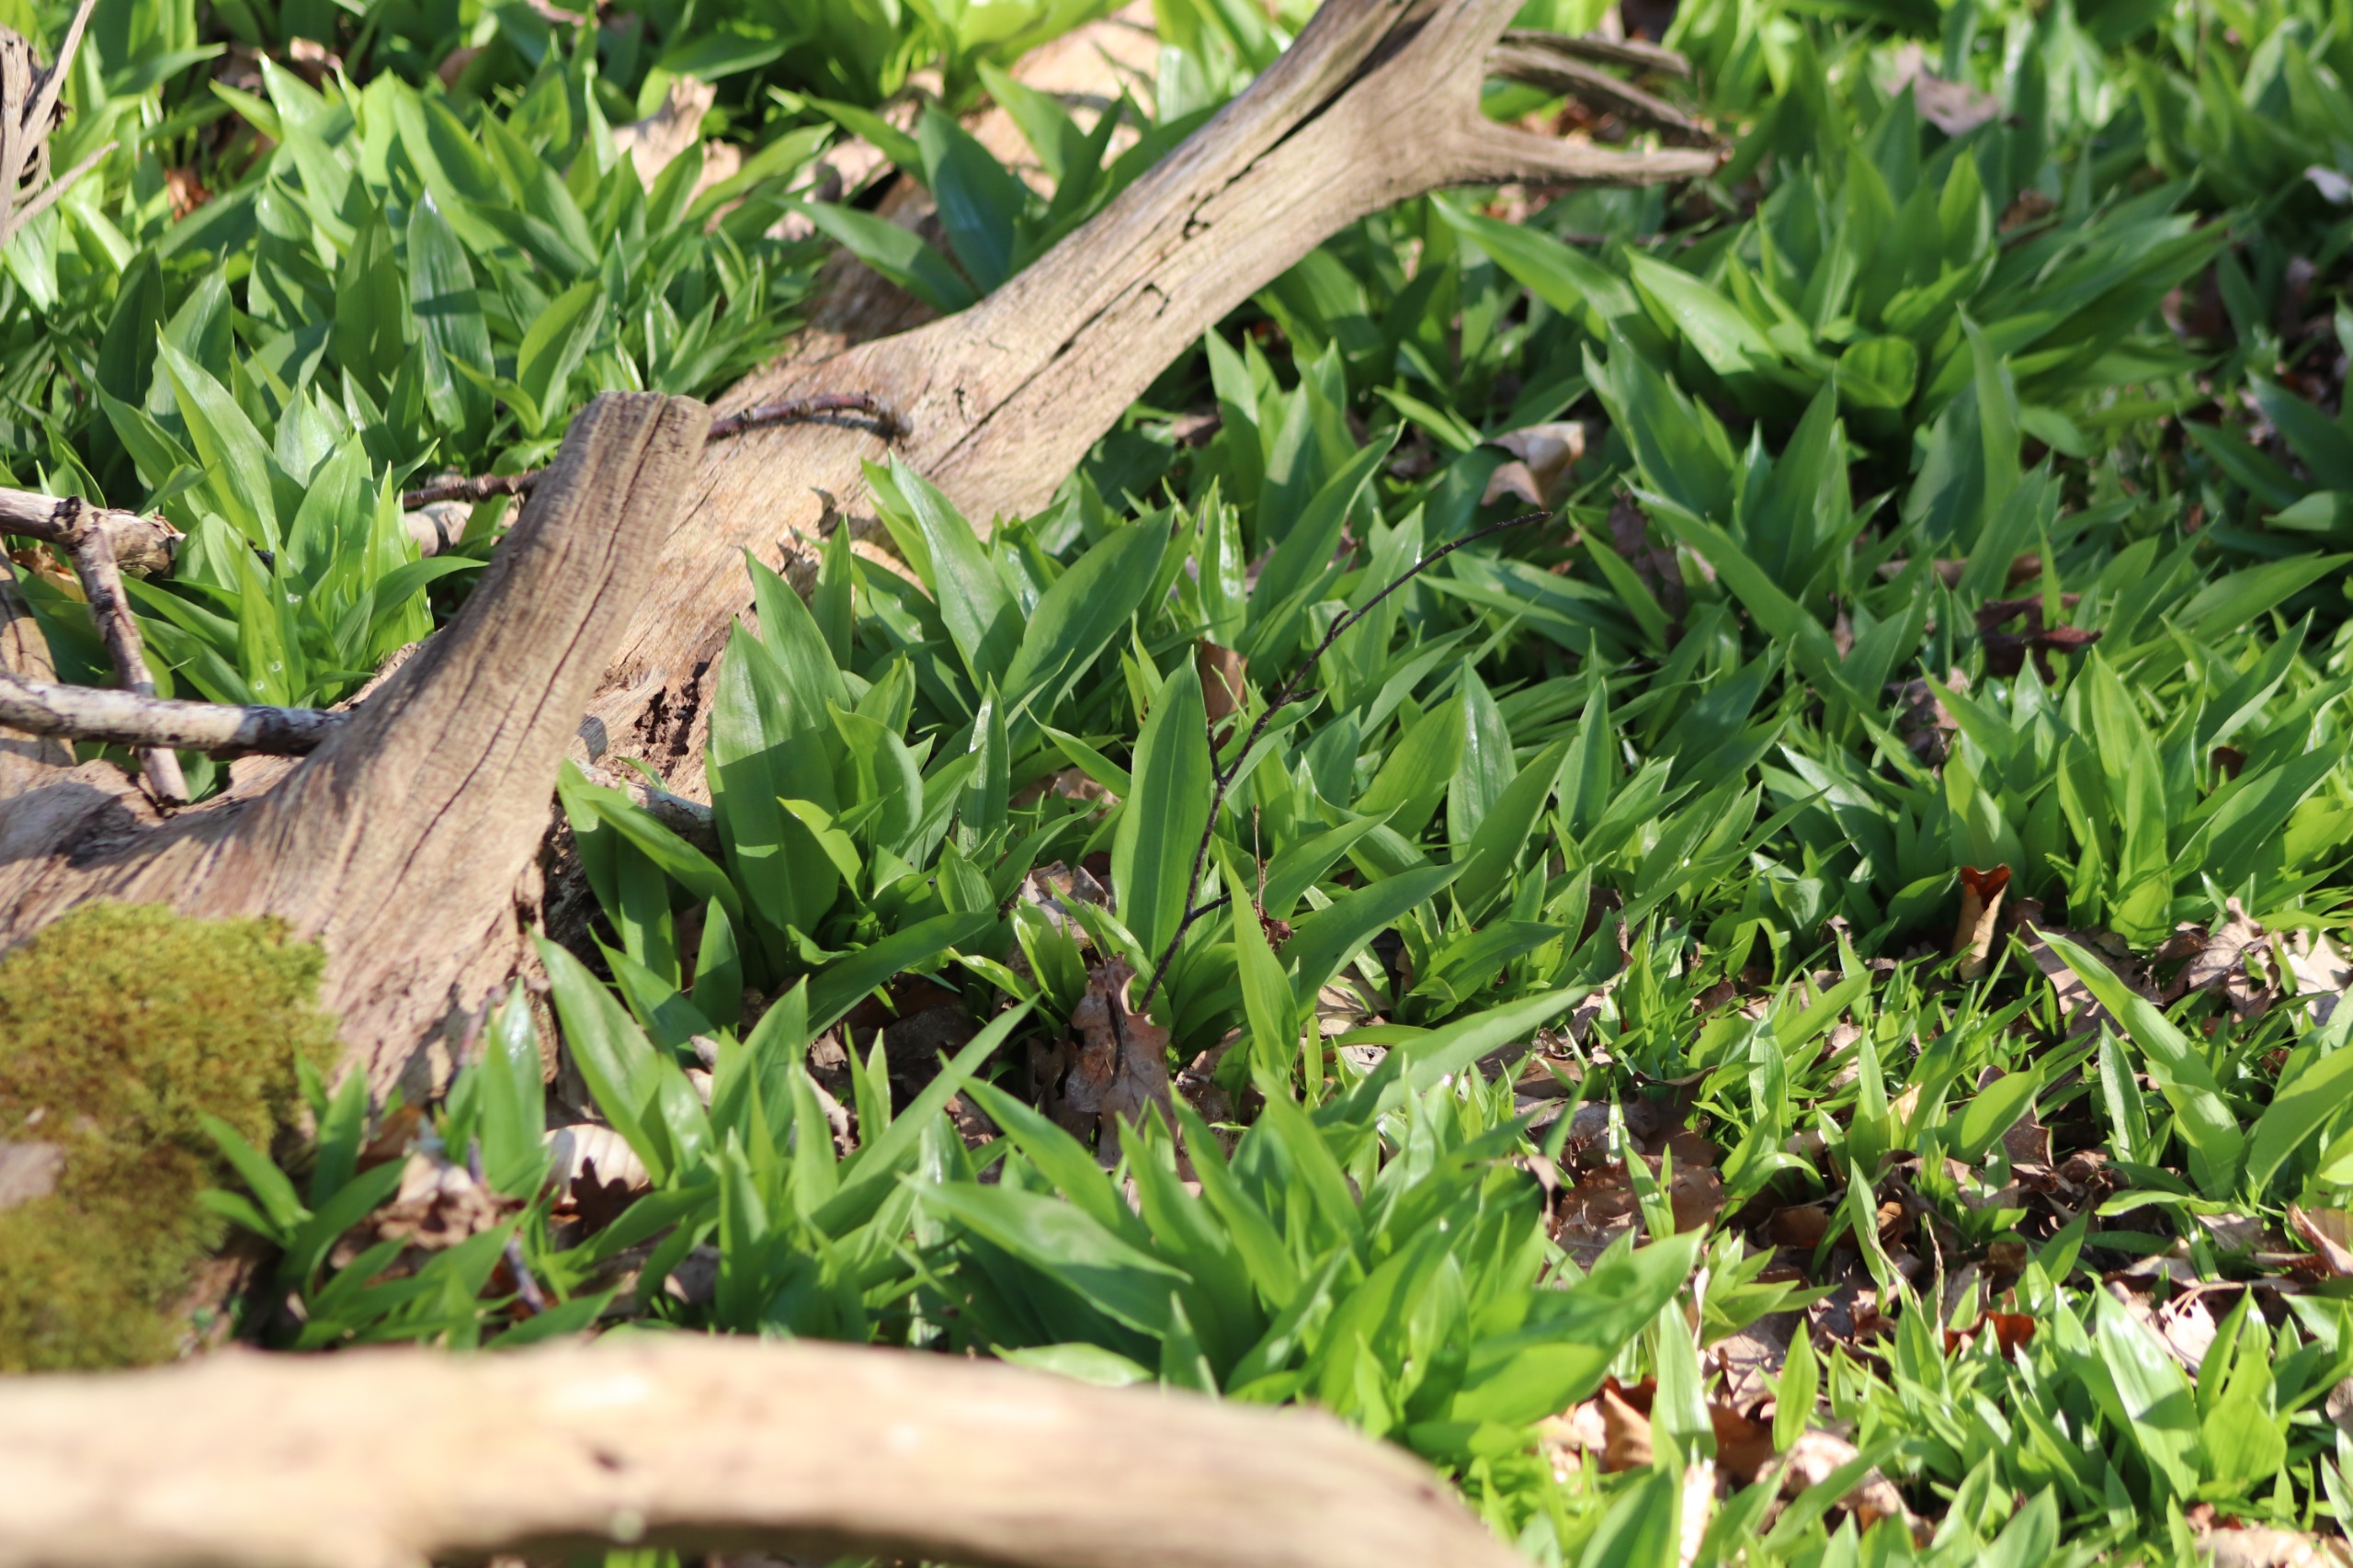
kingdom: Plantae
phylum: Tracheophyta
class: Liliopsida
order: Asparagales
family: Amaryllidaceae
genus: Allium
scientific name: Allium ursinum
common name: Rams-løg
